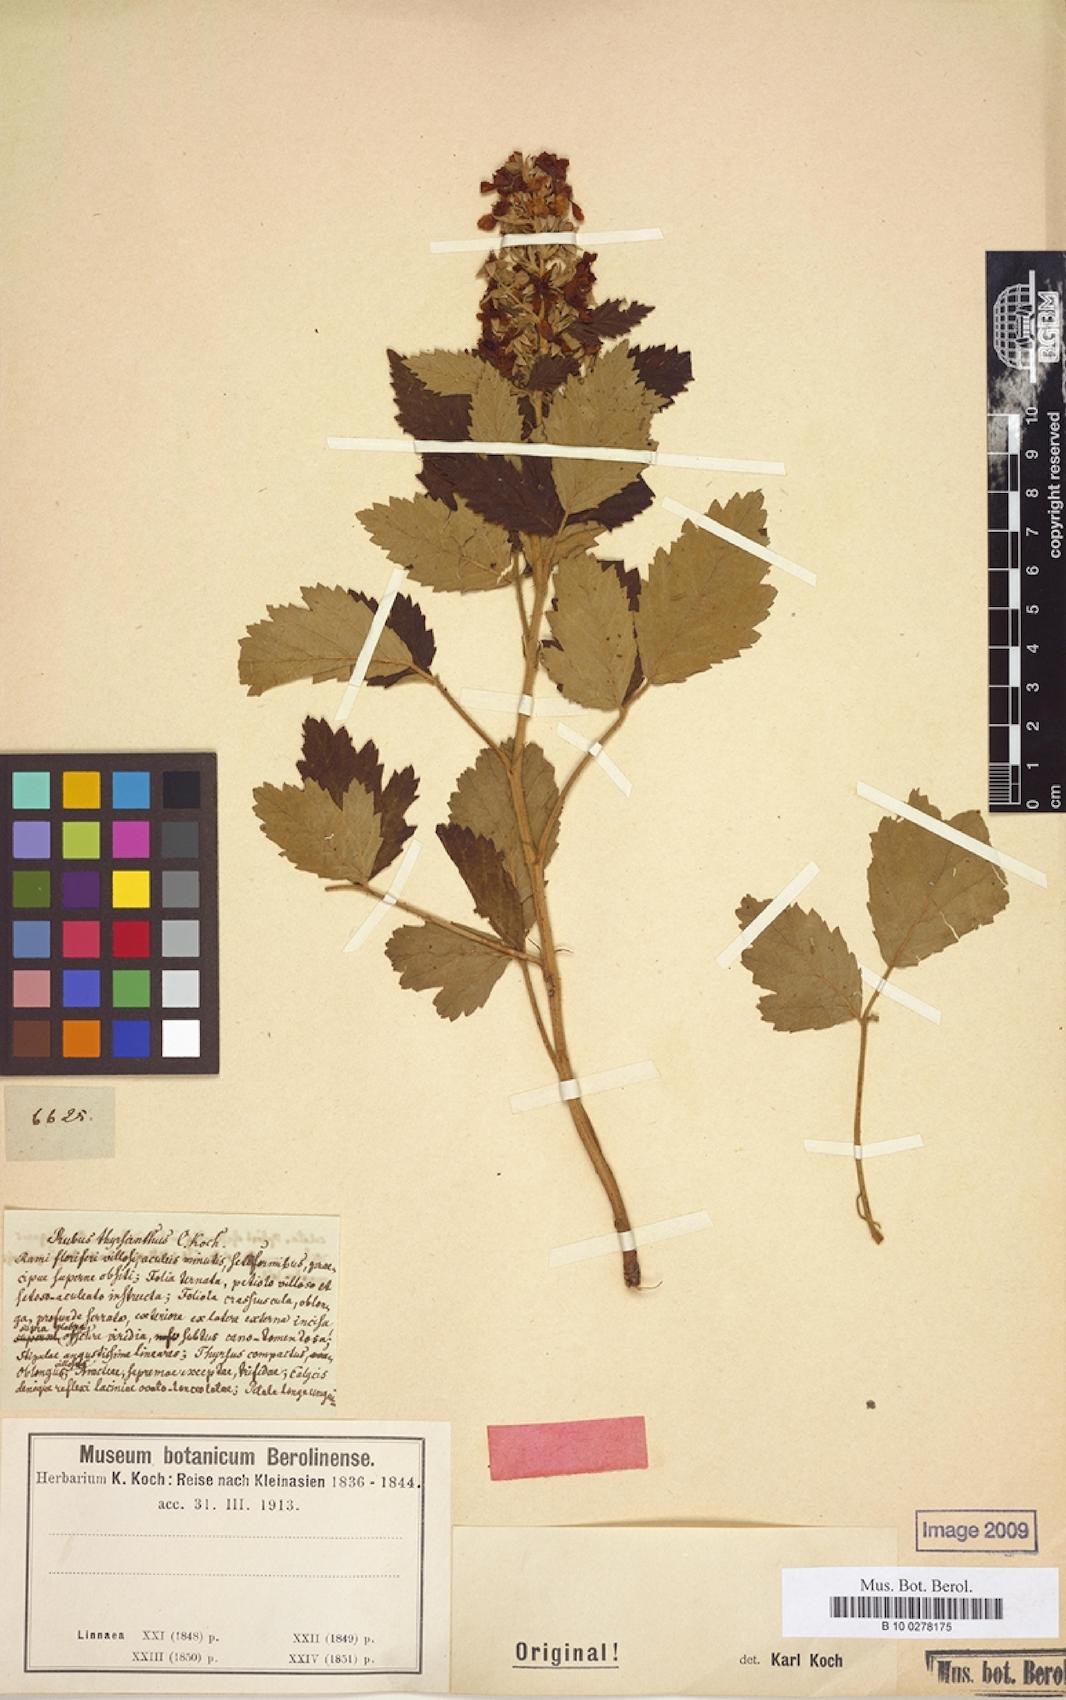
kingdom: Plantae
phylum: Tracheophyta
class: Magnoliopsida
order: Rosales
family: Rosaceae
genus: Rubus
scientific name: Rubus grabowskii
